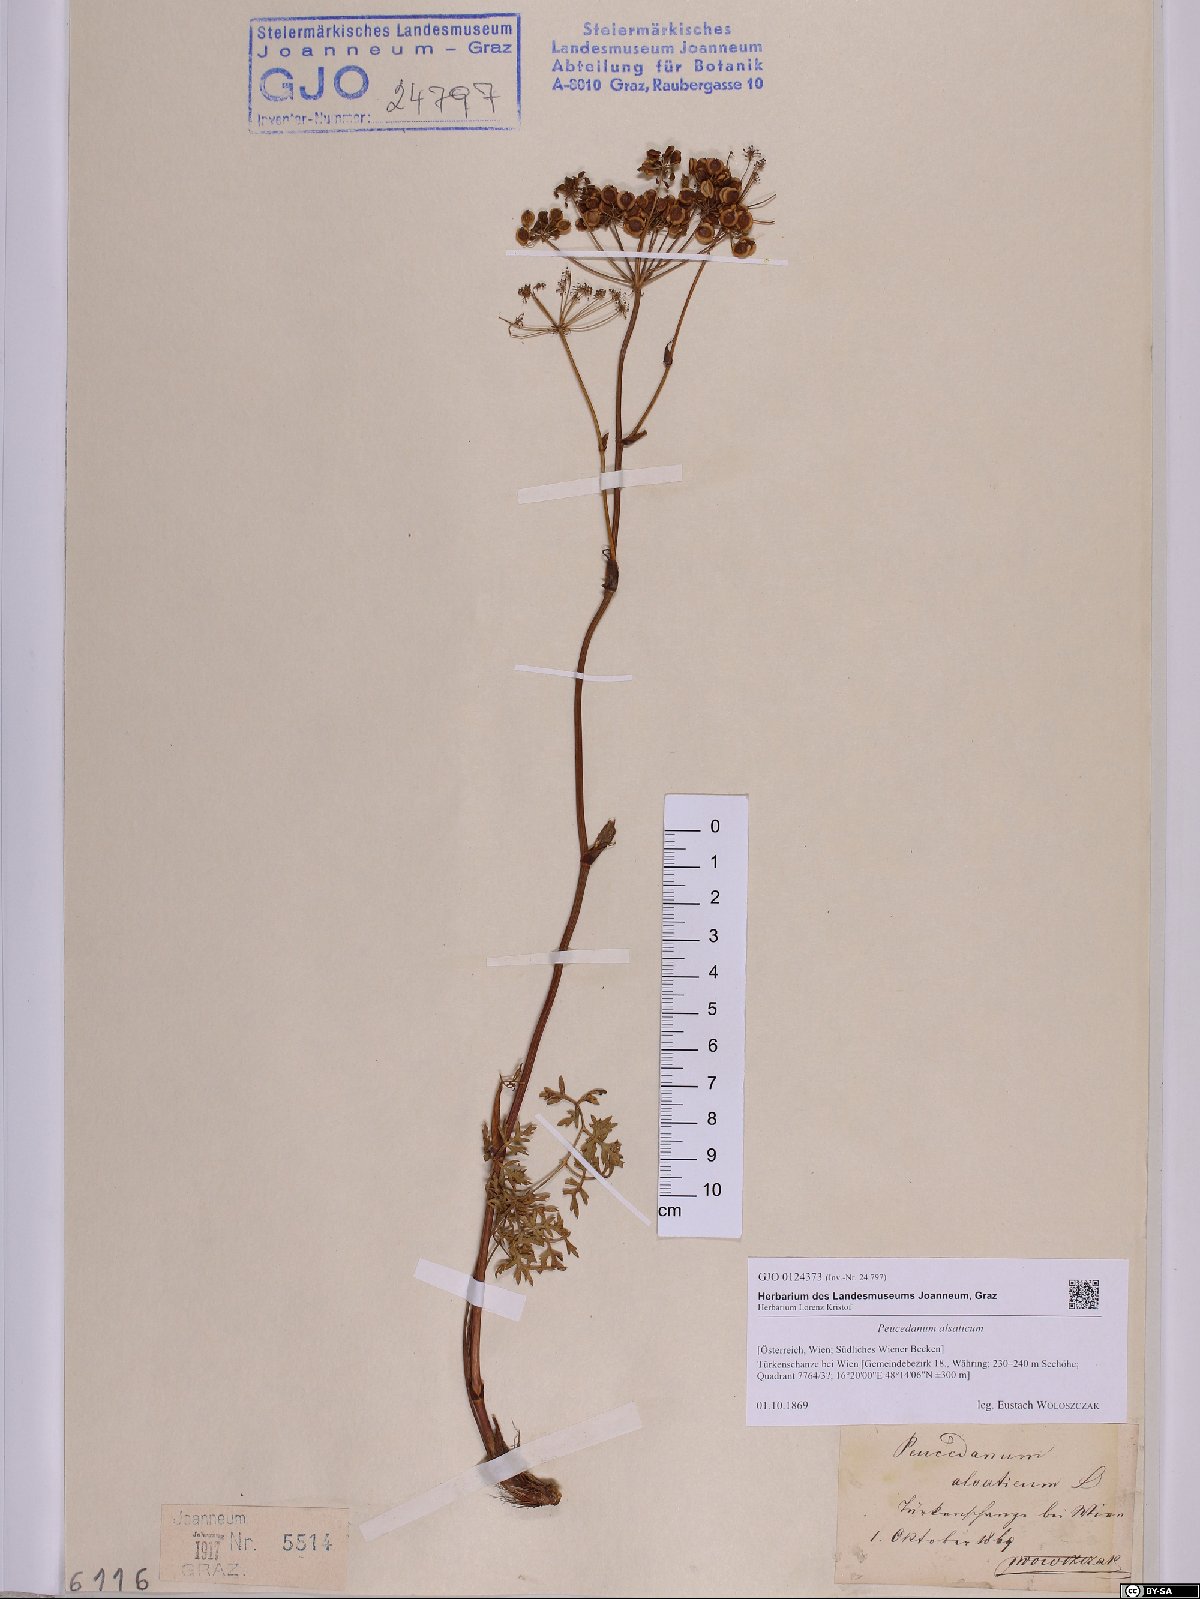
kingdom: Plantae
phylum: Tracheophyta
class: Magnoliopsida
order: Apiales
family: Apiaceae
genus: Xanthoselinum
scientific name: Xanthoselinum alsaticum
